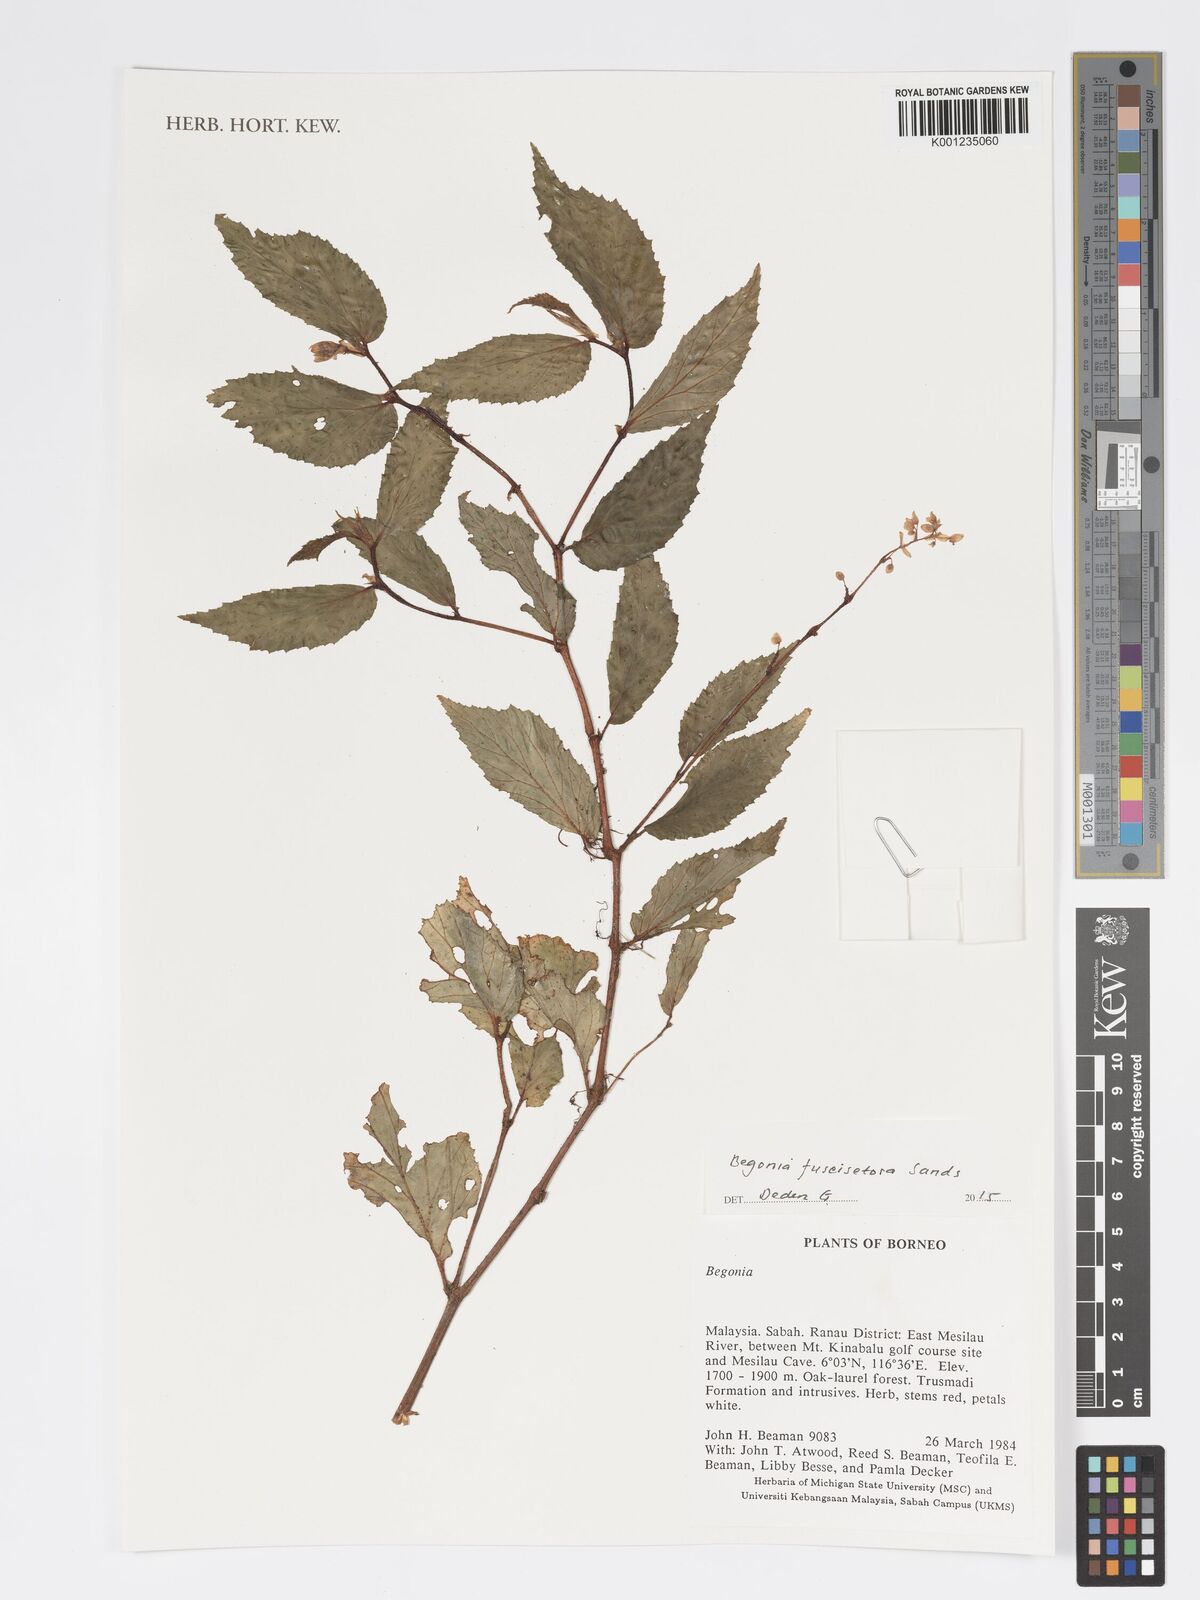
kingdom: Plantae
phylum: Tracheophyta
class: Magnoliopsida
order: Cucurbitales
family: Begoniaceae
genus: Begonia
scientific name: Begonia fuscisetosa
